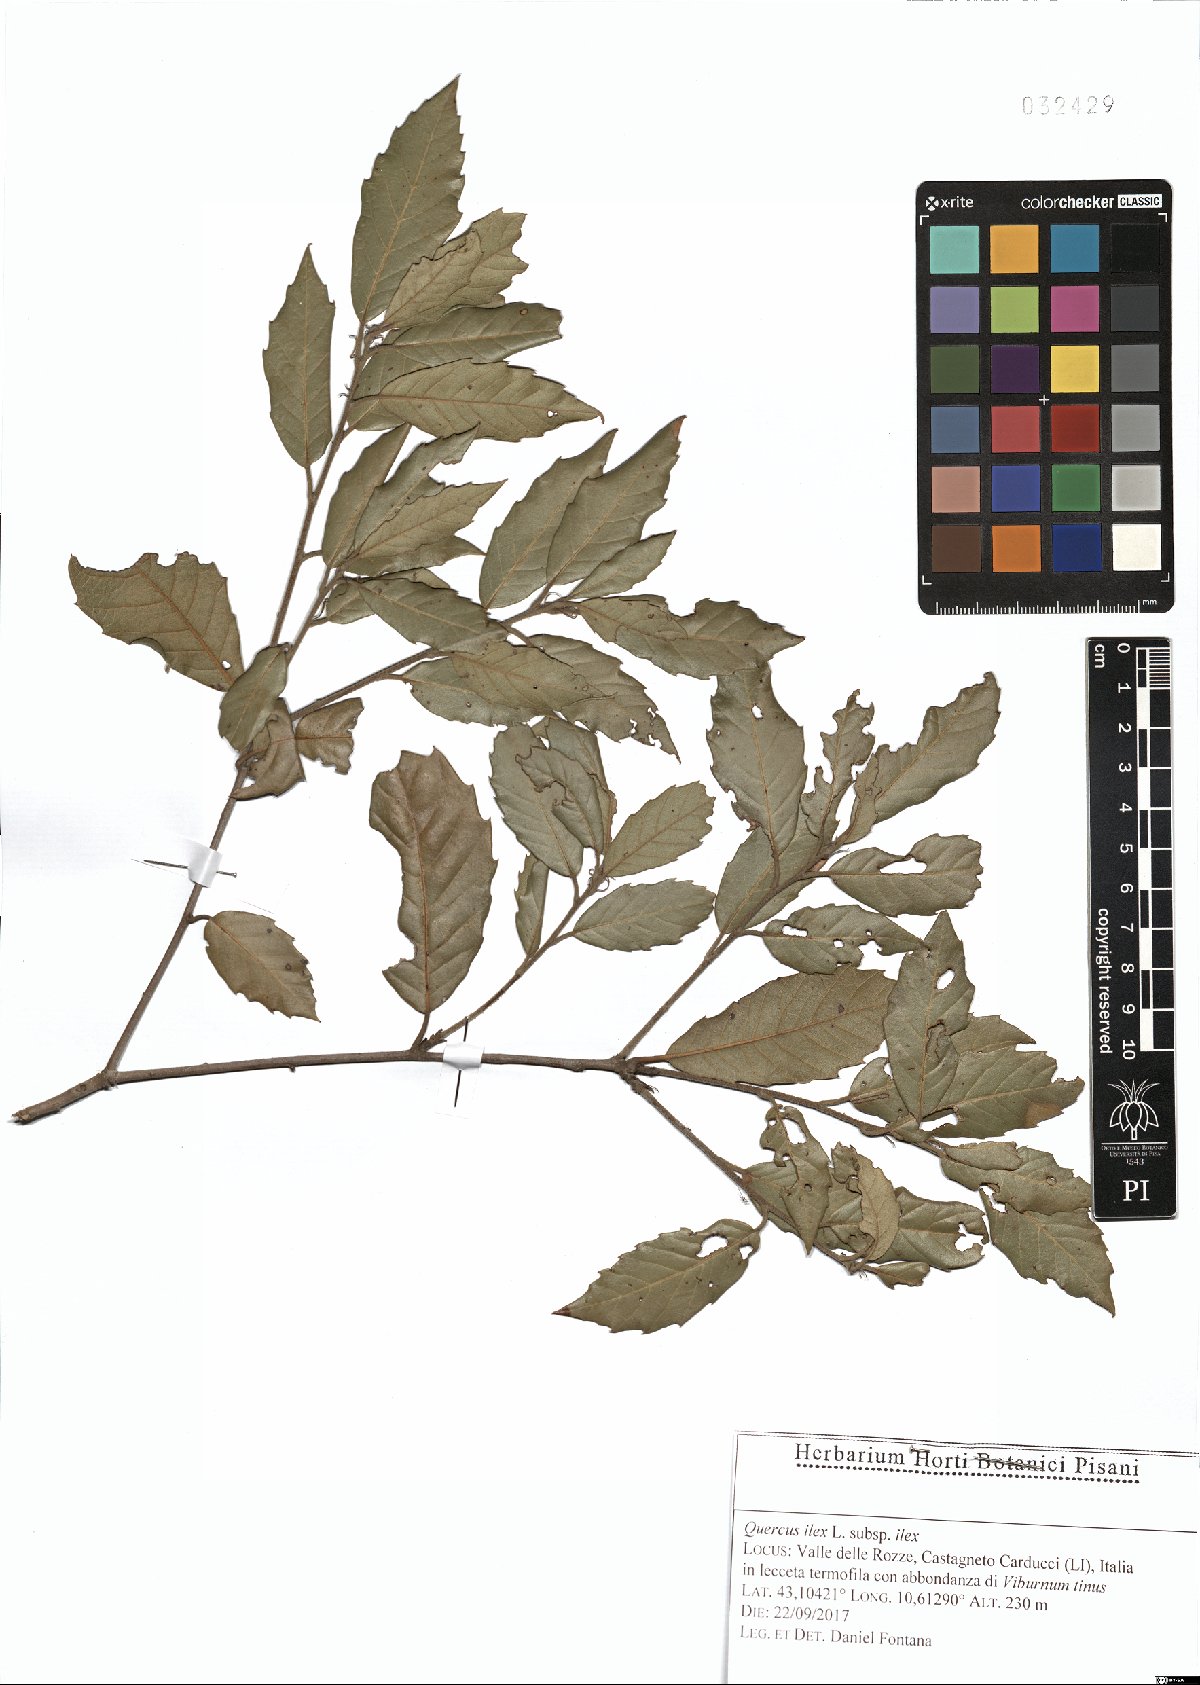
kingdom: Plantae
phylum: Tracheophyta
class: Magnoliopsida
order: Fagales
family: Fagaceae
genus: Quercus
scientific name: Quercus ilex
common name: Evergreen oak
